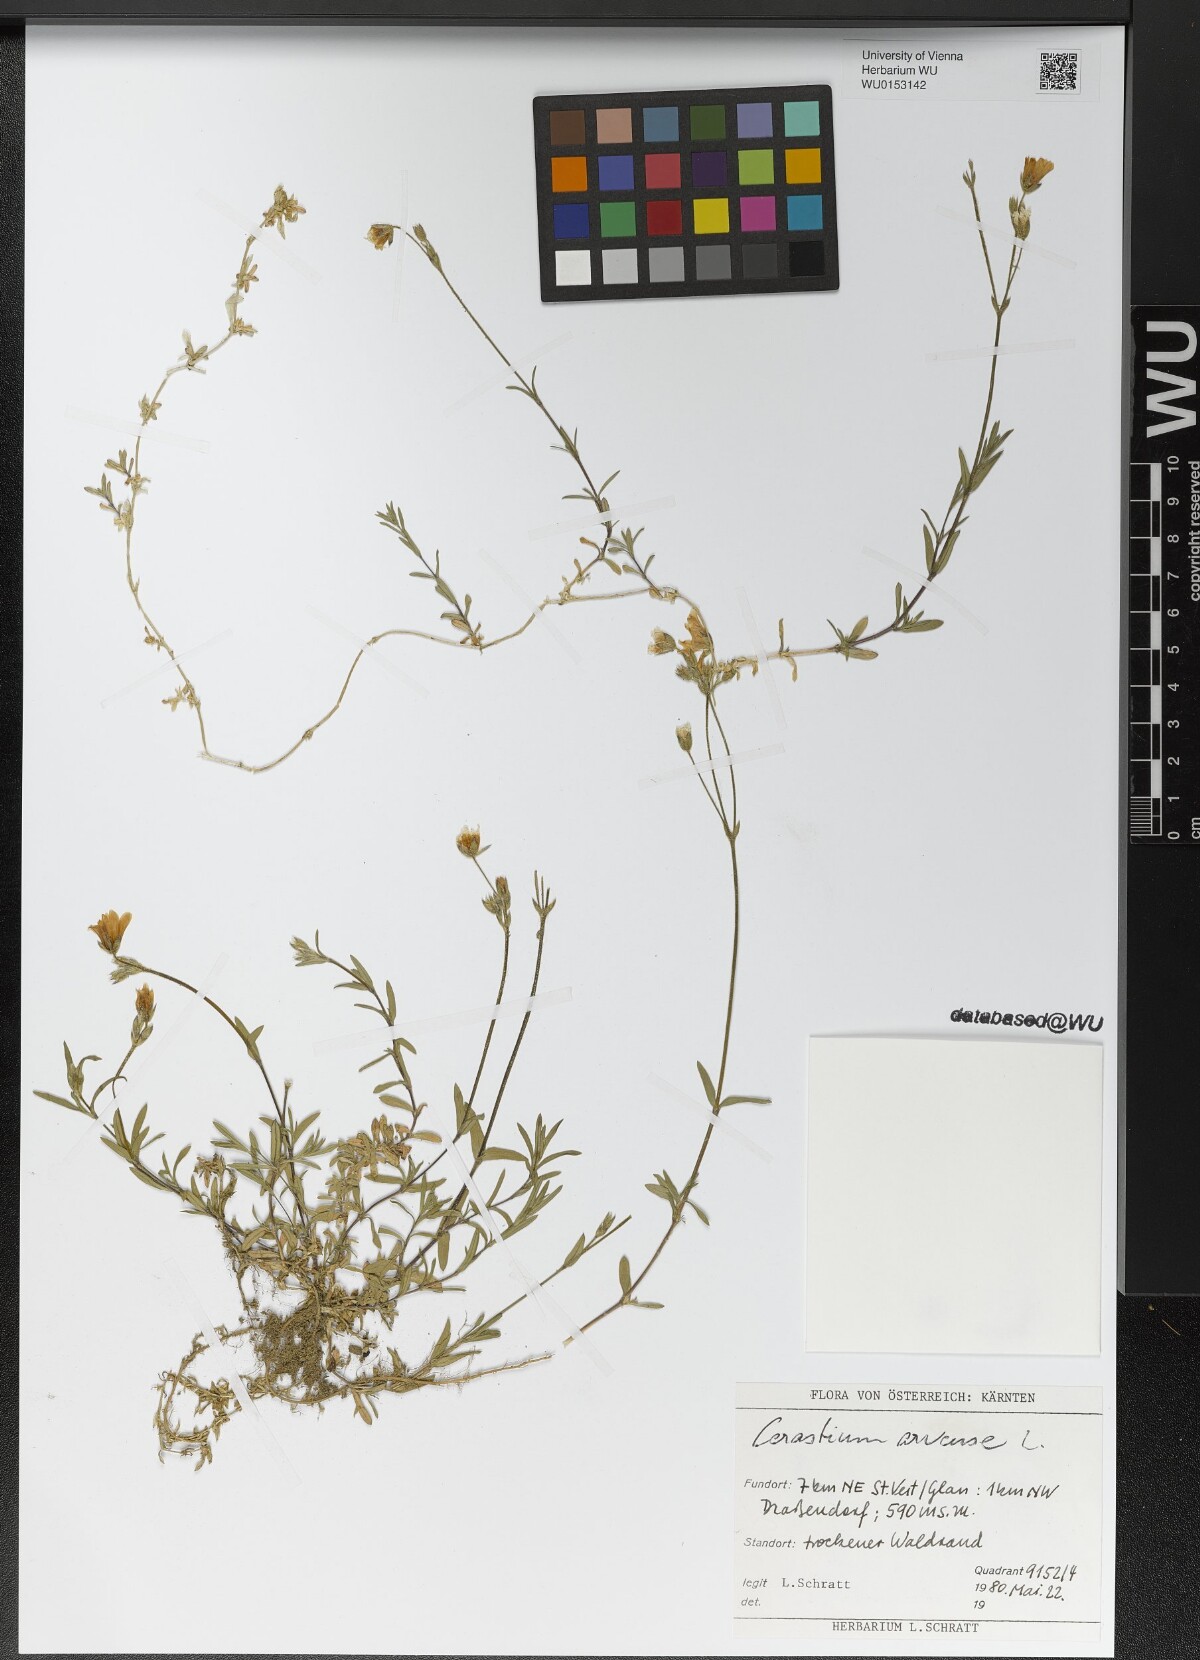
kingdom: Plantae
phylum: Tracheophyta
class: Magnoliopsida
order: Caryophyllales
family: Caryophyllaceae
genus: Cerastium
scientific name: Cerastium arvense
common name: Field mouse-ear
